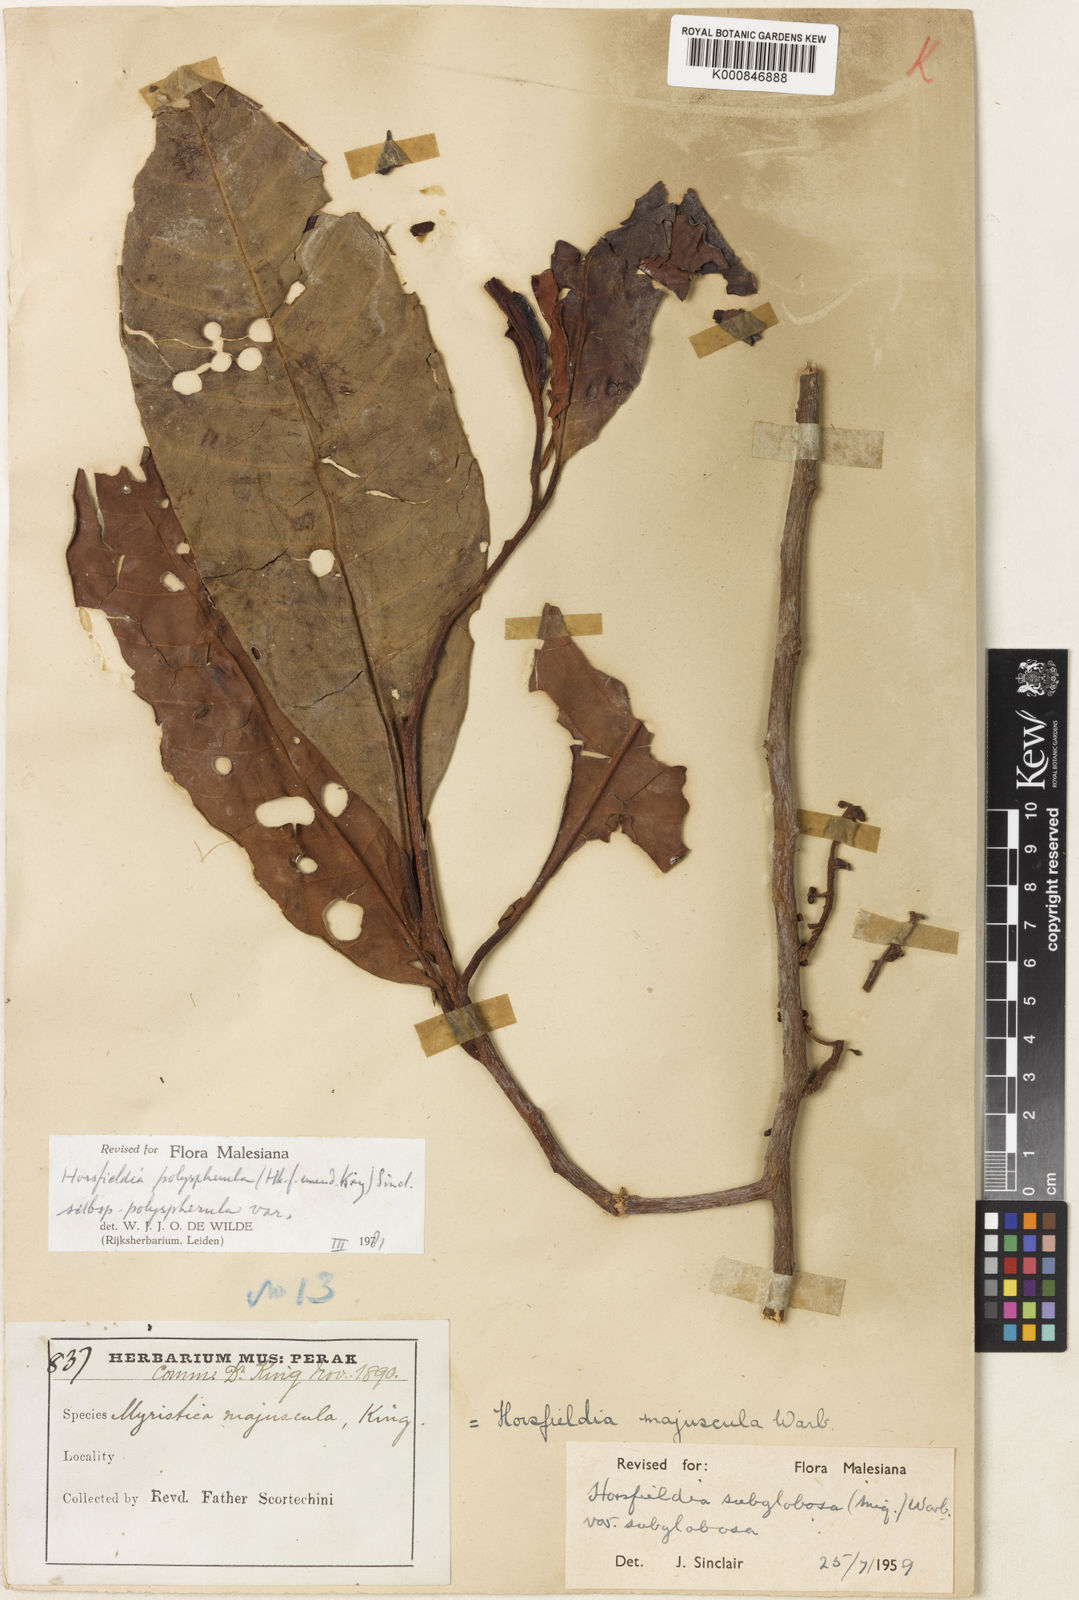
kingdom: Plantae
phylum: Tracheophyta
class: Magnoliopsida
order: Magnoliales
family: Myristicaceae
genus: Horsfieldia
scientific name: Horsfieldia polyspherula
